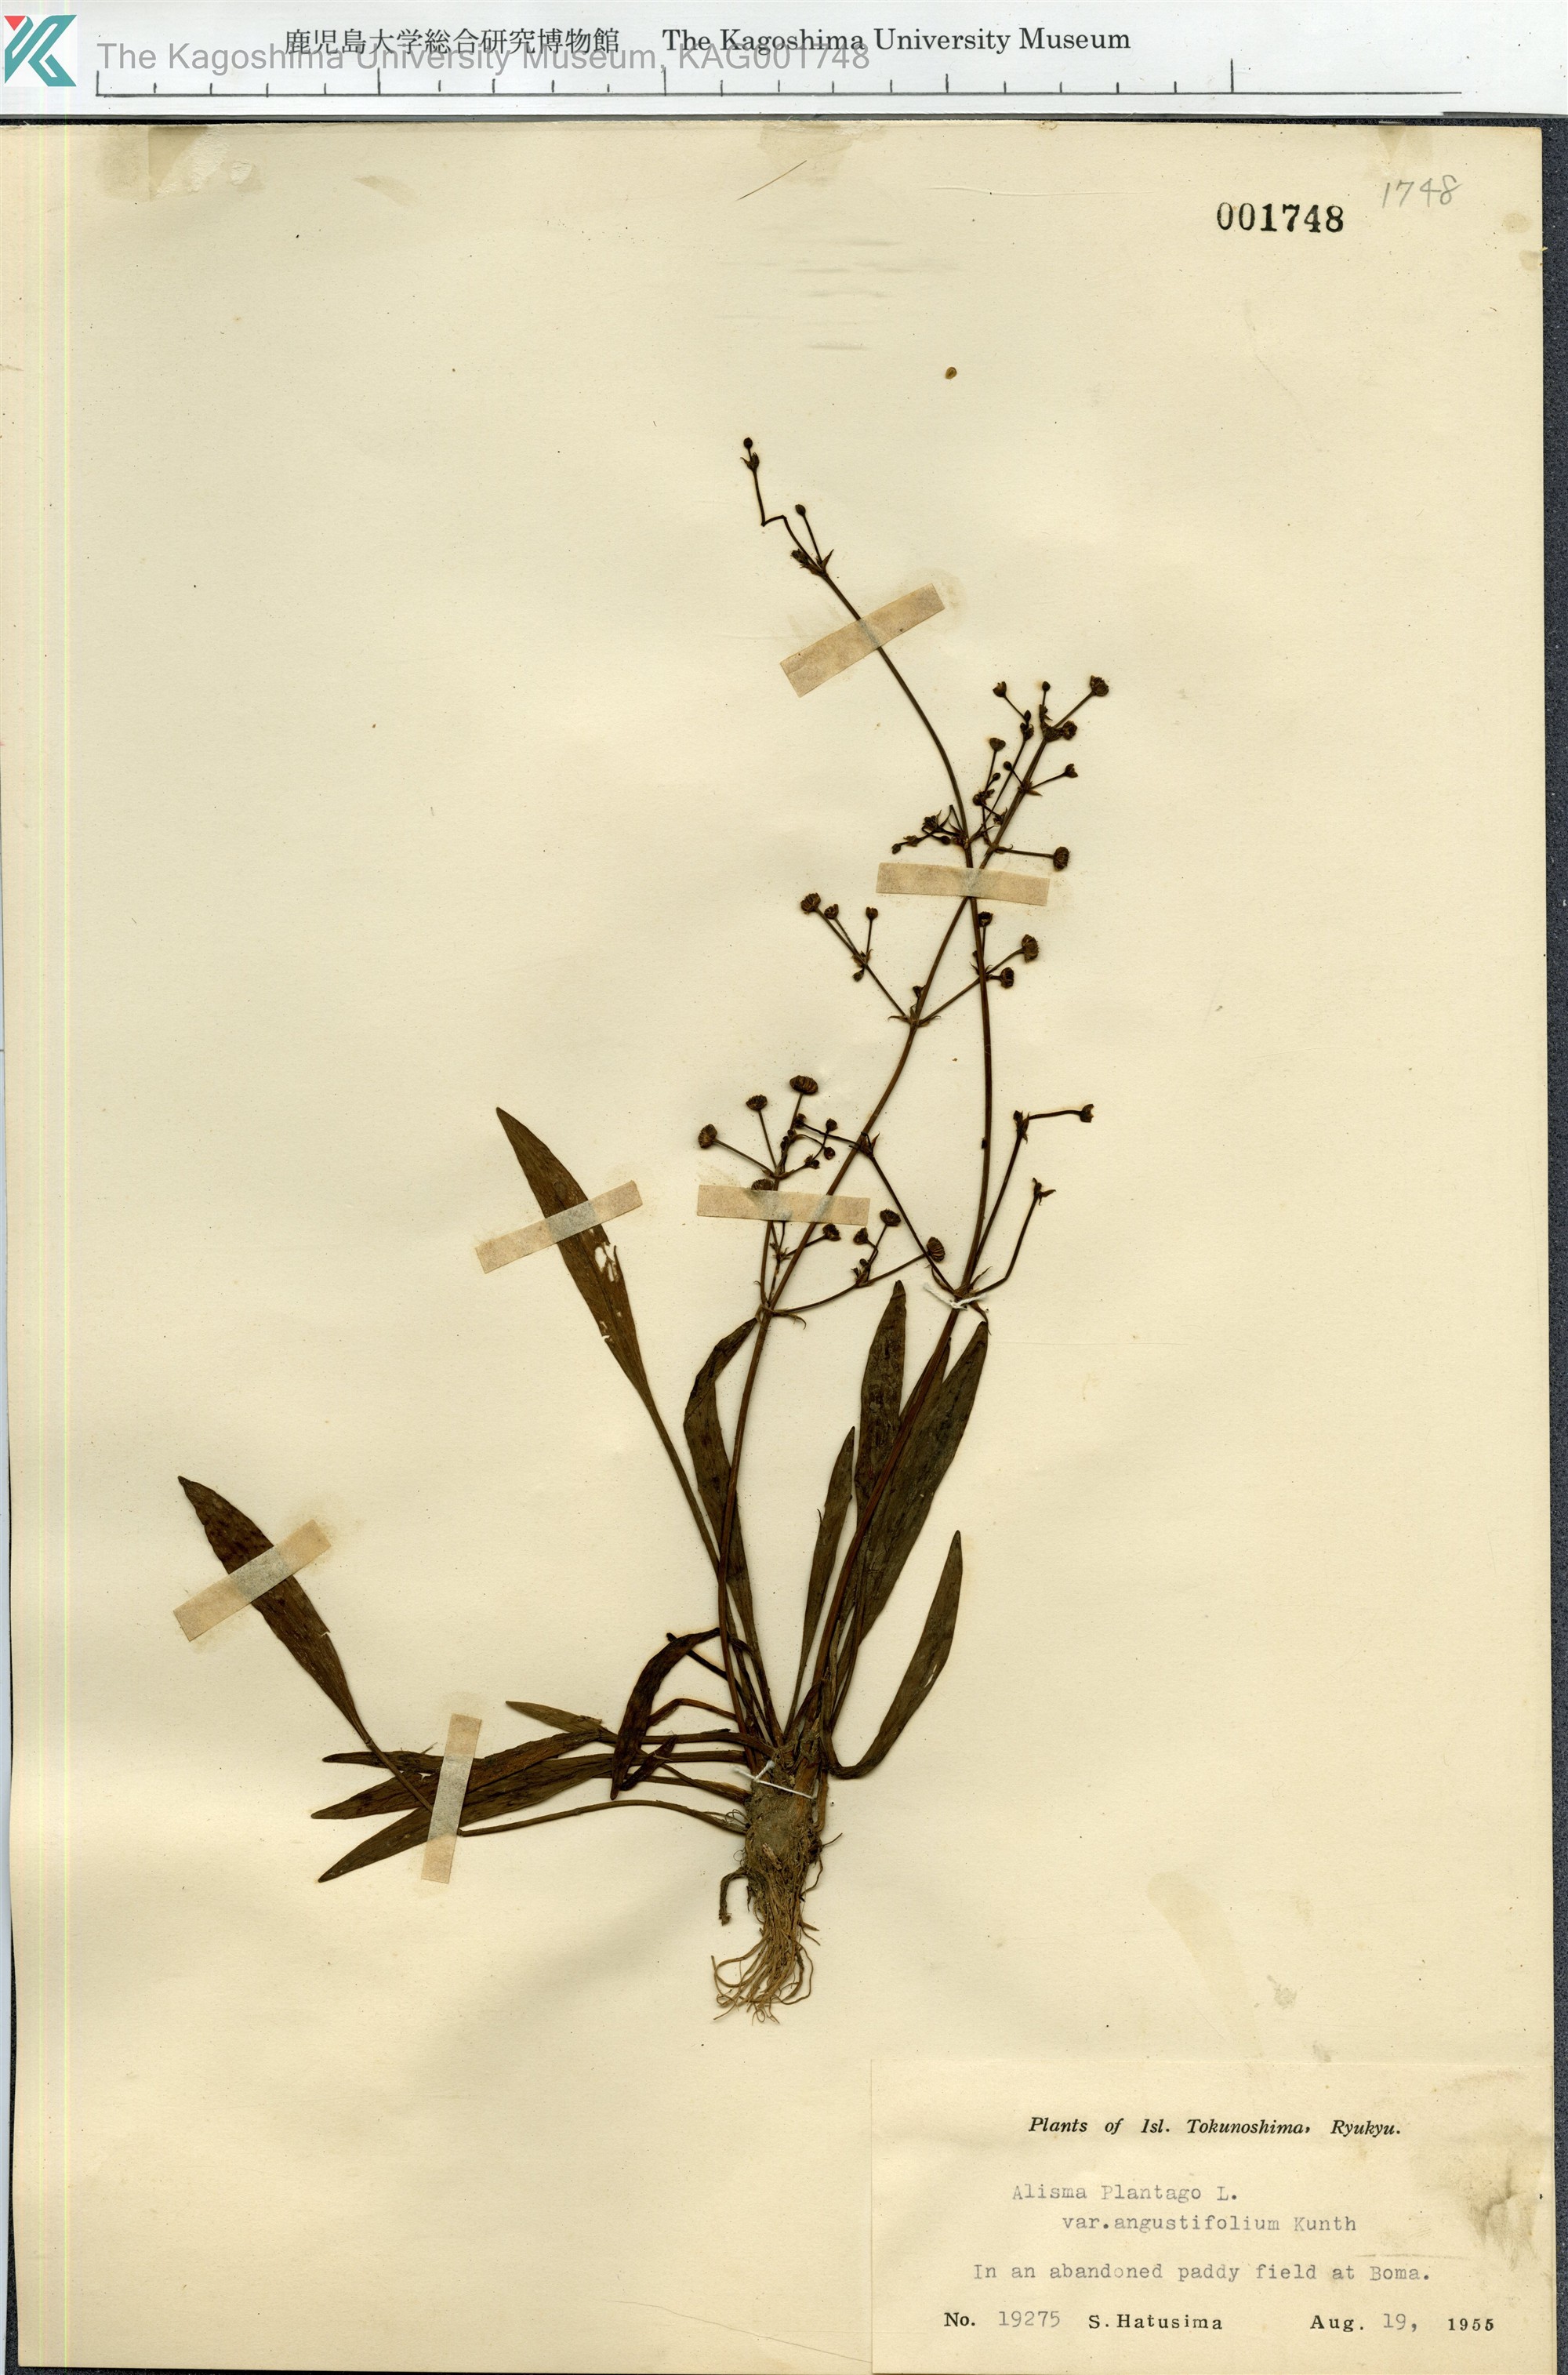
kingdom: Plantae
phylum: Tracheophyta
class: Liliopsida
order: Alismatales
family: Alismataceae
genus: Alisma
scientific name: Alisma canaliculatum
